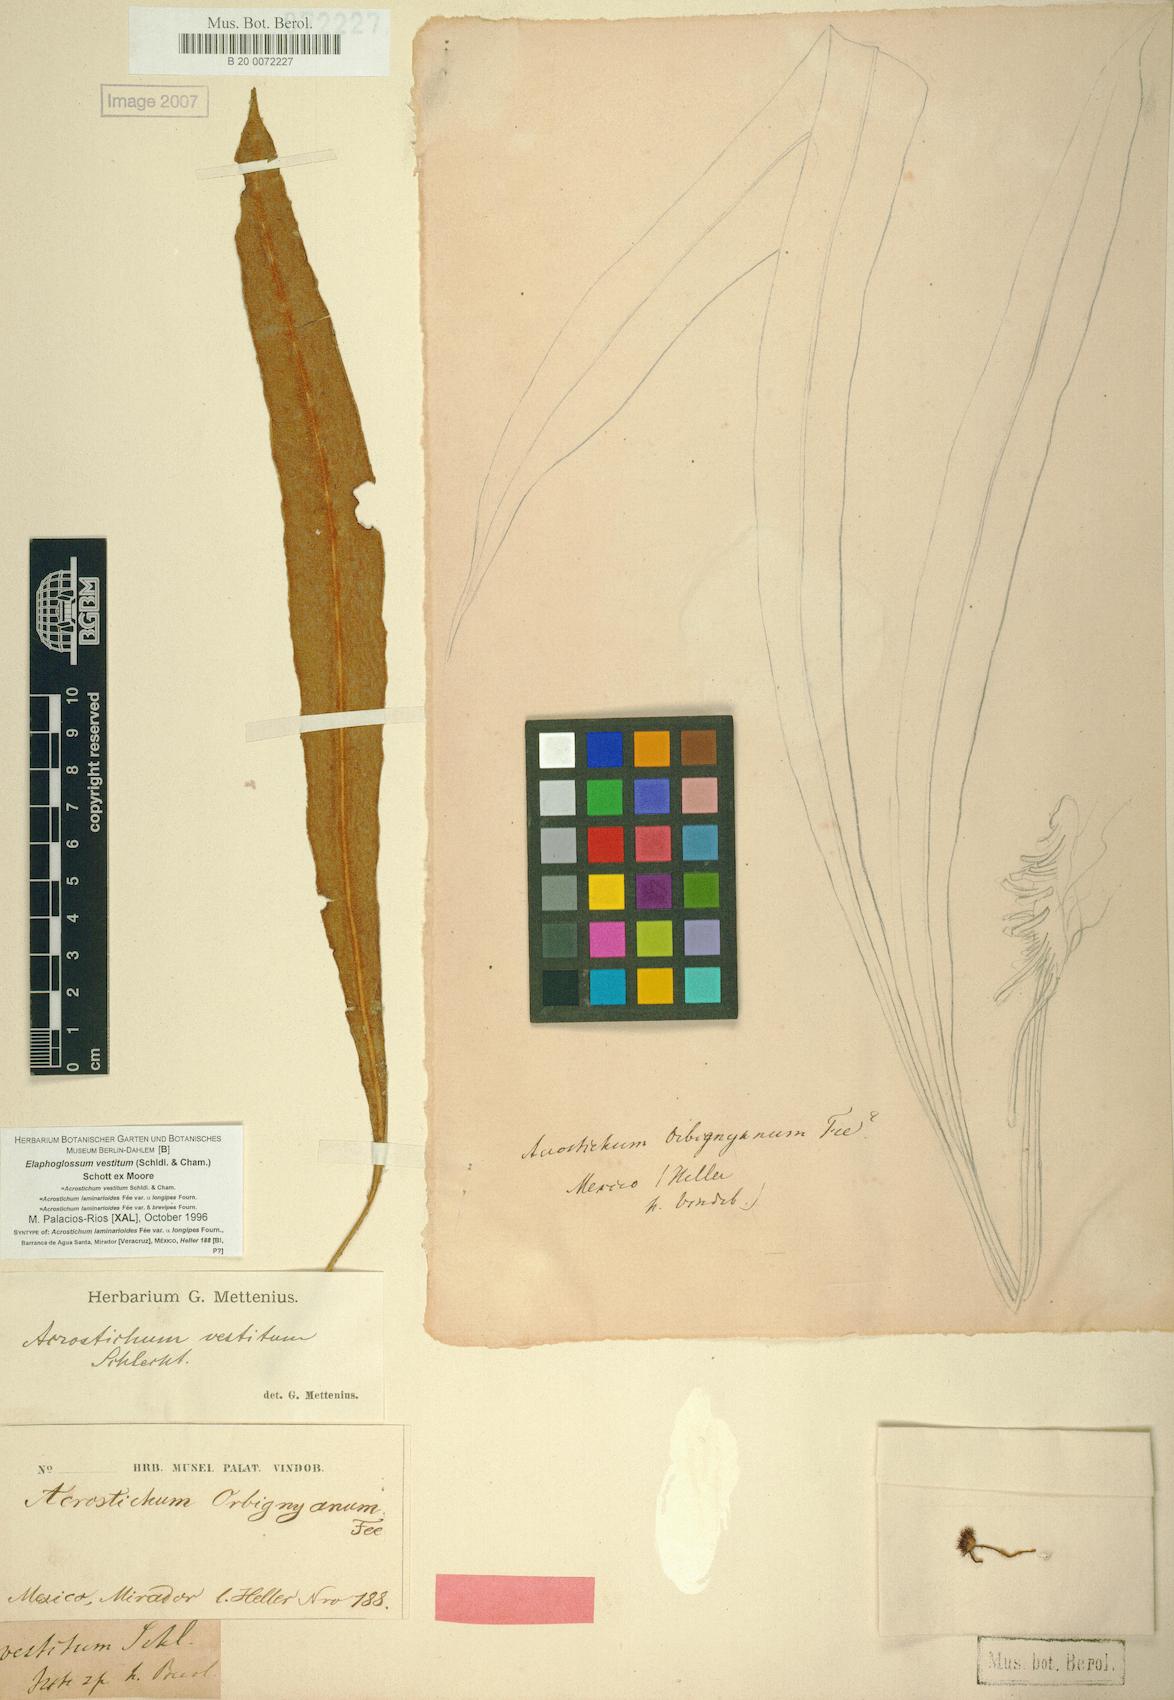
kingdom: Plantae
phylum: Tracheophyta
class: Polypodiopsida
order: Polypodiales
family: Dryopteridaceae
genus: Elaphoglossum
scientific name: Elaphoglossum vestitum
